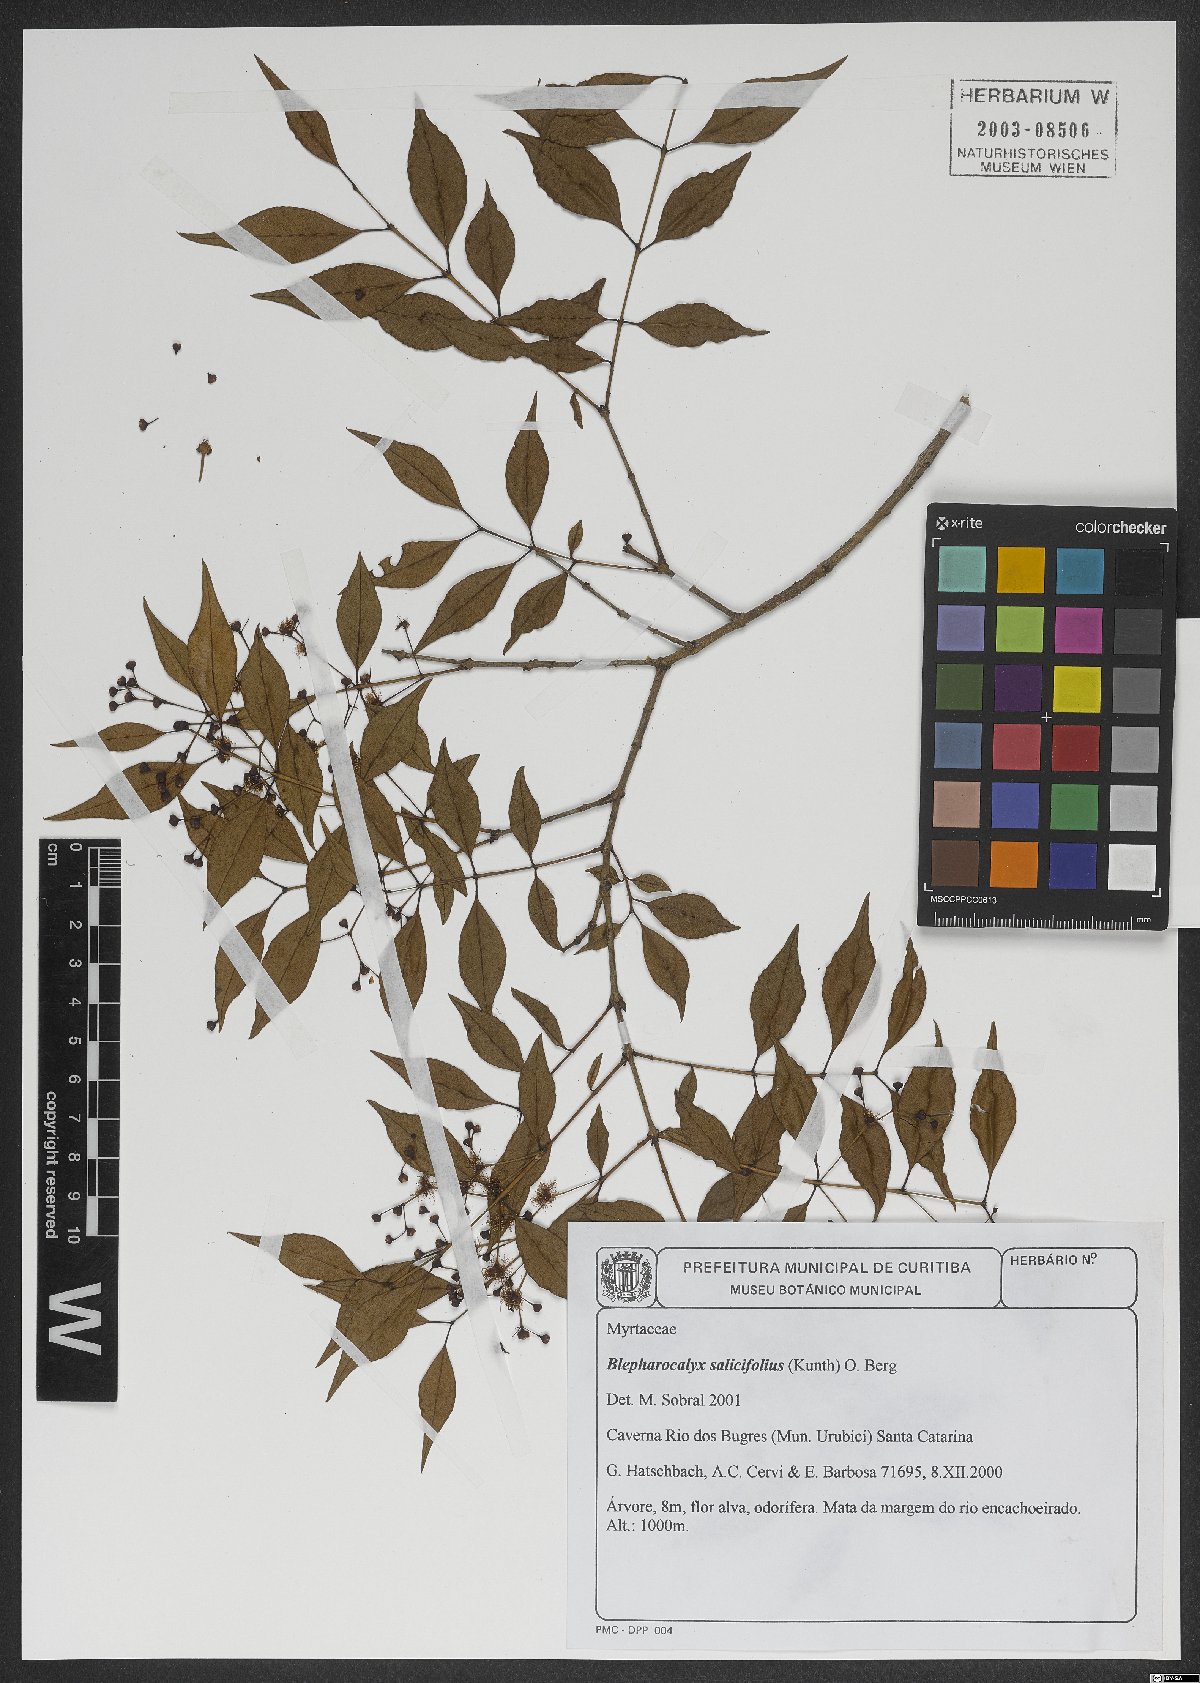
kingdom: Plantae
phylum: Tracheophyta
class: Magnoliopsida
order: Myrtales
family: Myrtaceae
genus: Blepharocalyx
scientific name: Blepharocalyx salicifolius
